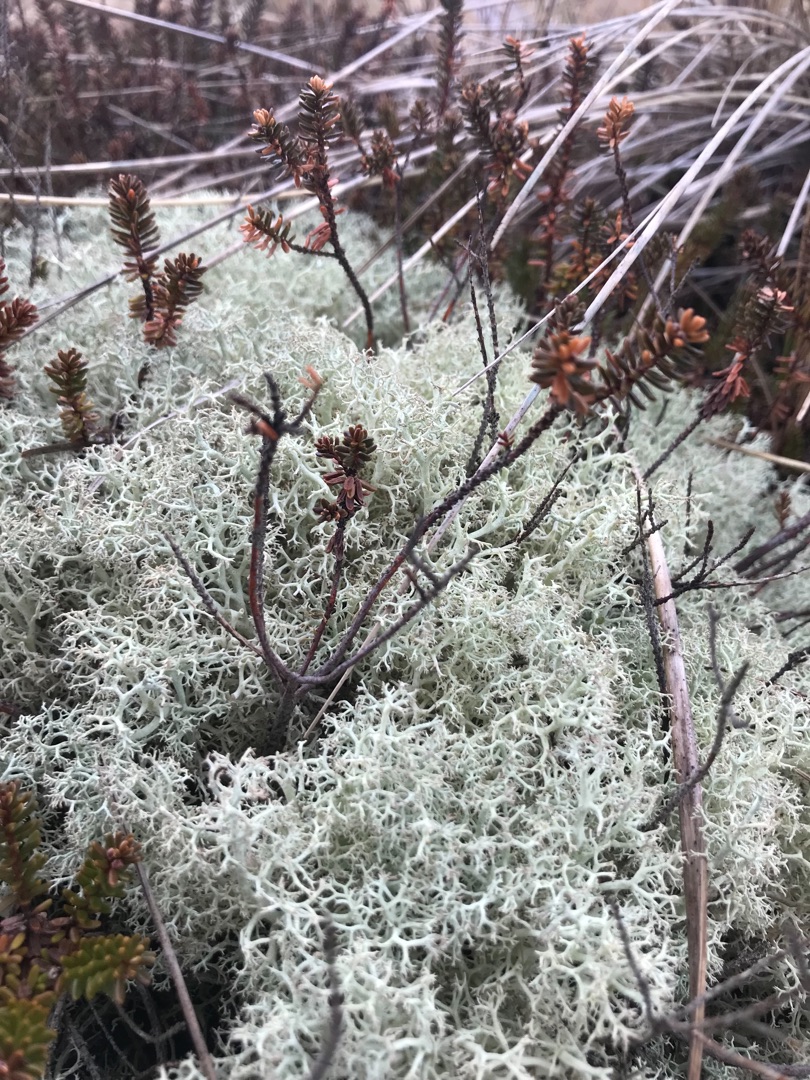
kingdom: Fungi
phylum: Ascomycota
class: Lecanoromycetes
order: Lecanorales
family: Cladoniaceae
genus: Cladonia
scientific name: Cladonia portentosa
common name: Hede-rensdyrlav
